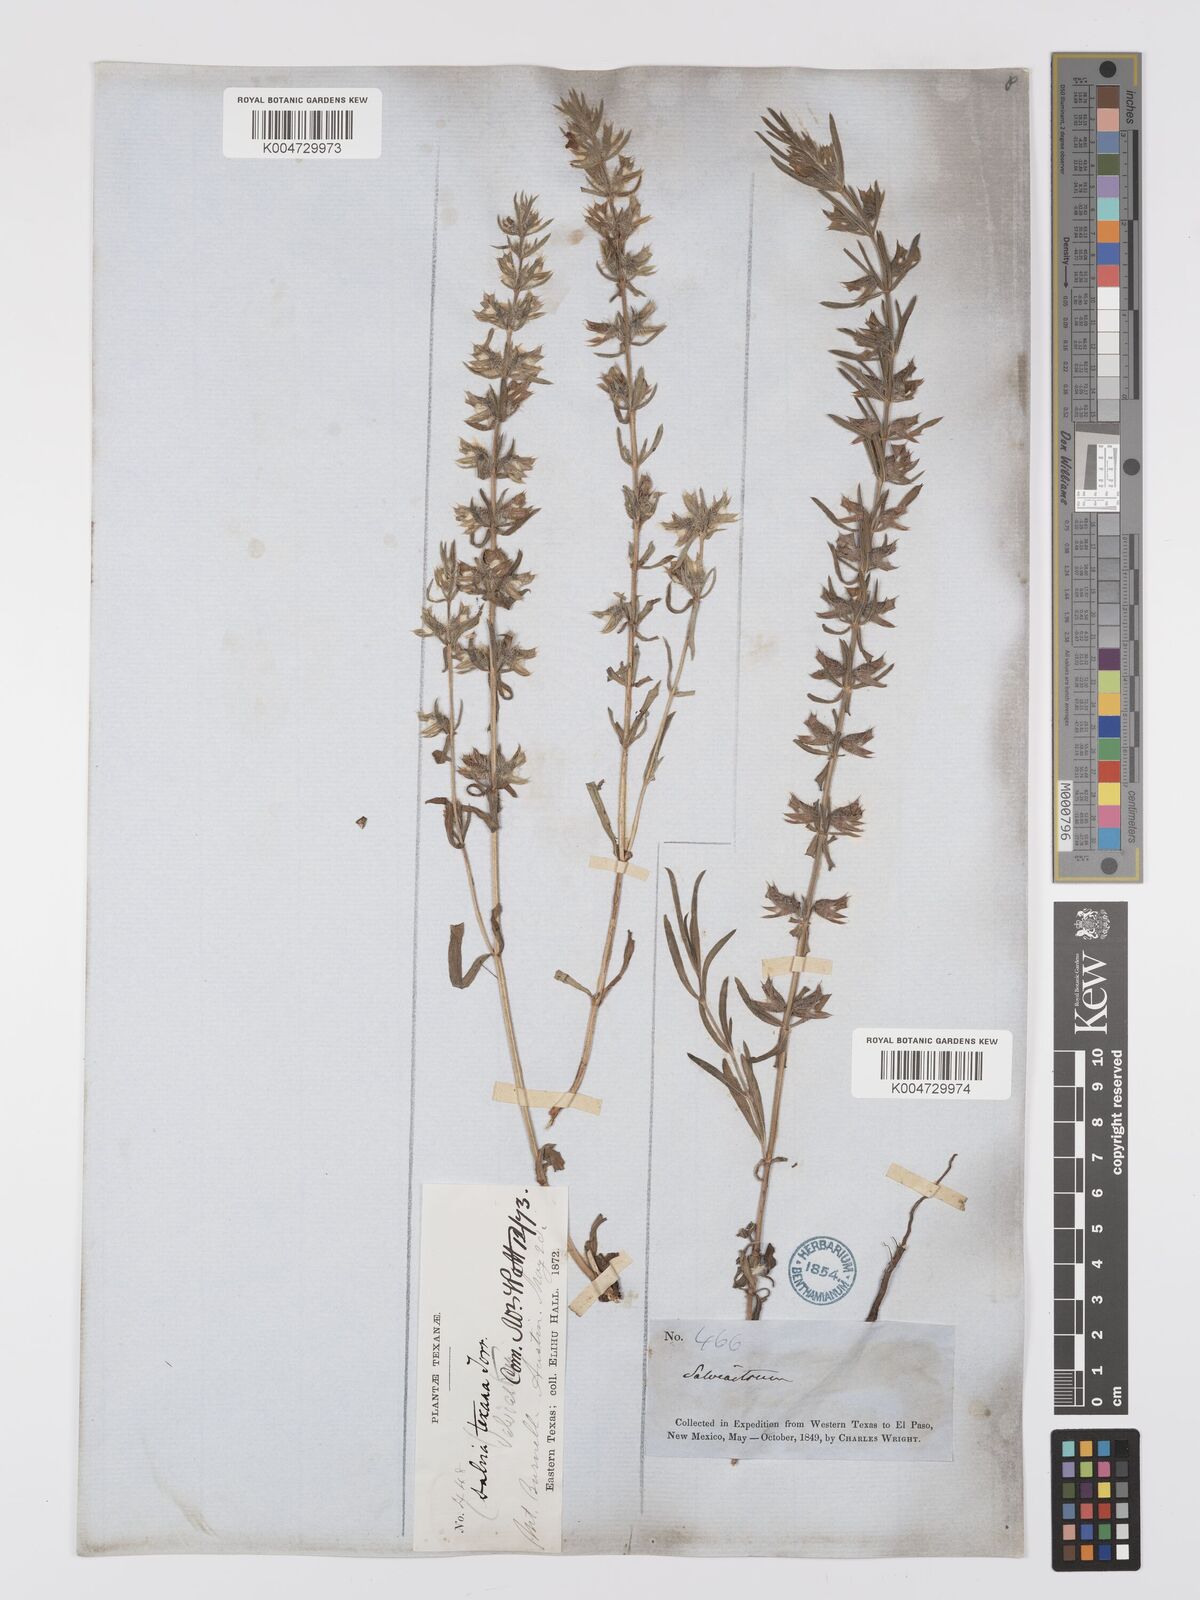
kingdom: Plantae
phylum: Tracheophyta
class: Magnoliopsida
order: Lamiales
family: Lamiaceae
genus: Salvia
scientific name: Salvia texana
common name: Texas sage
